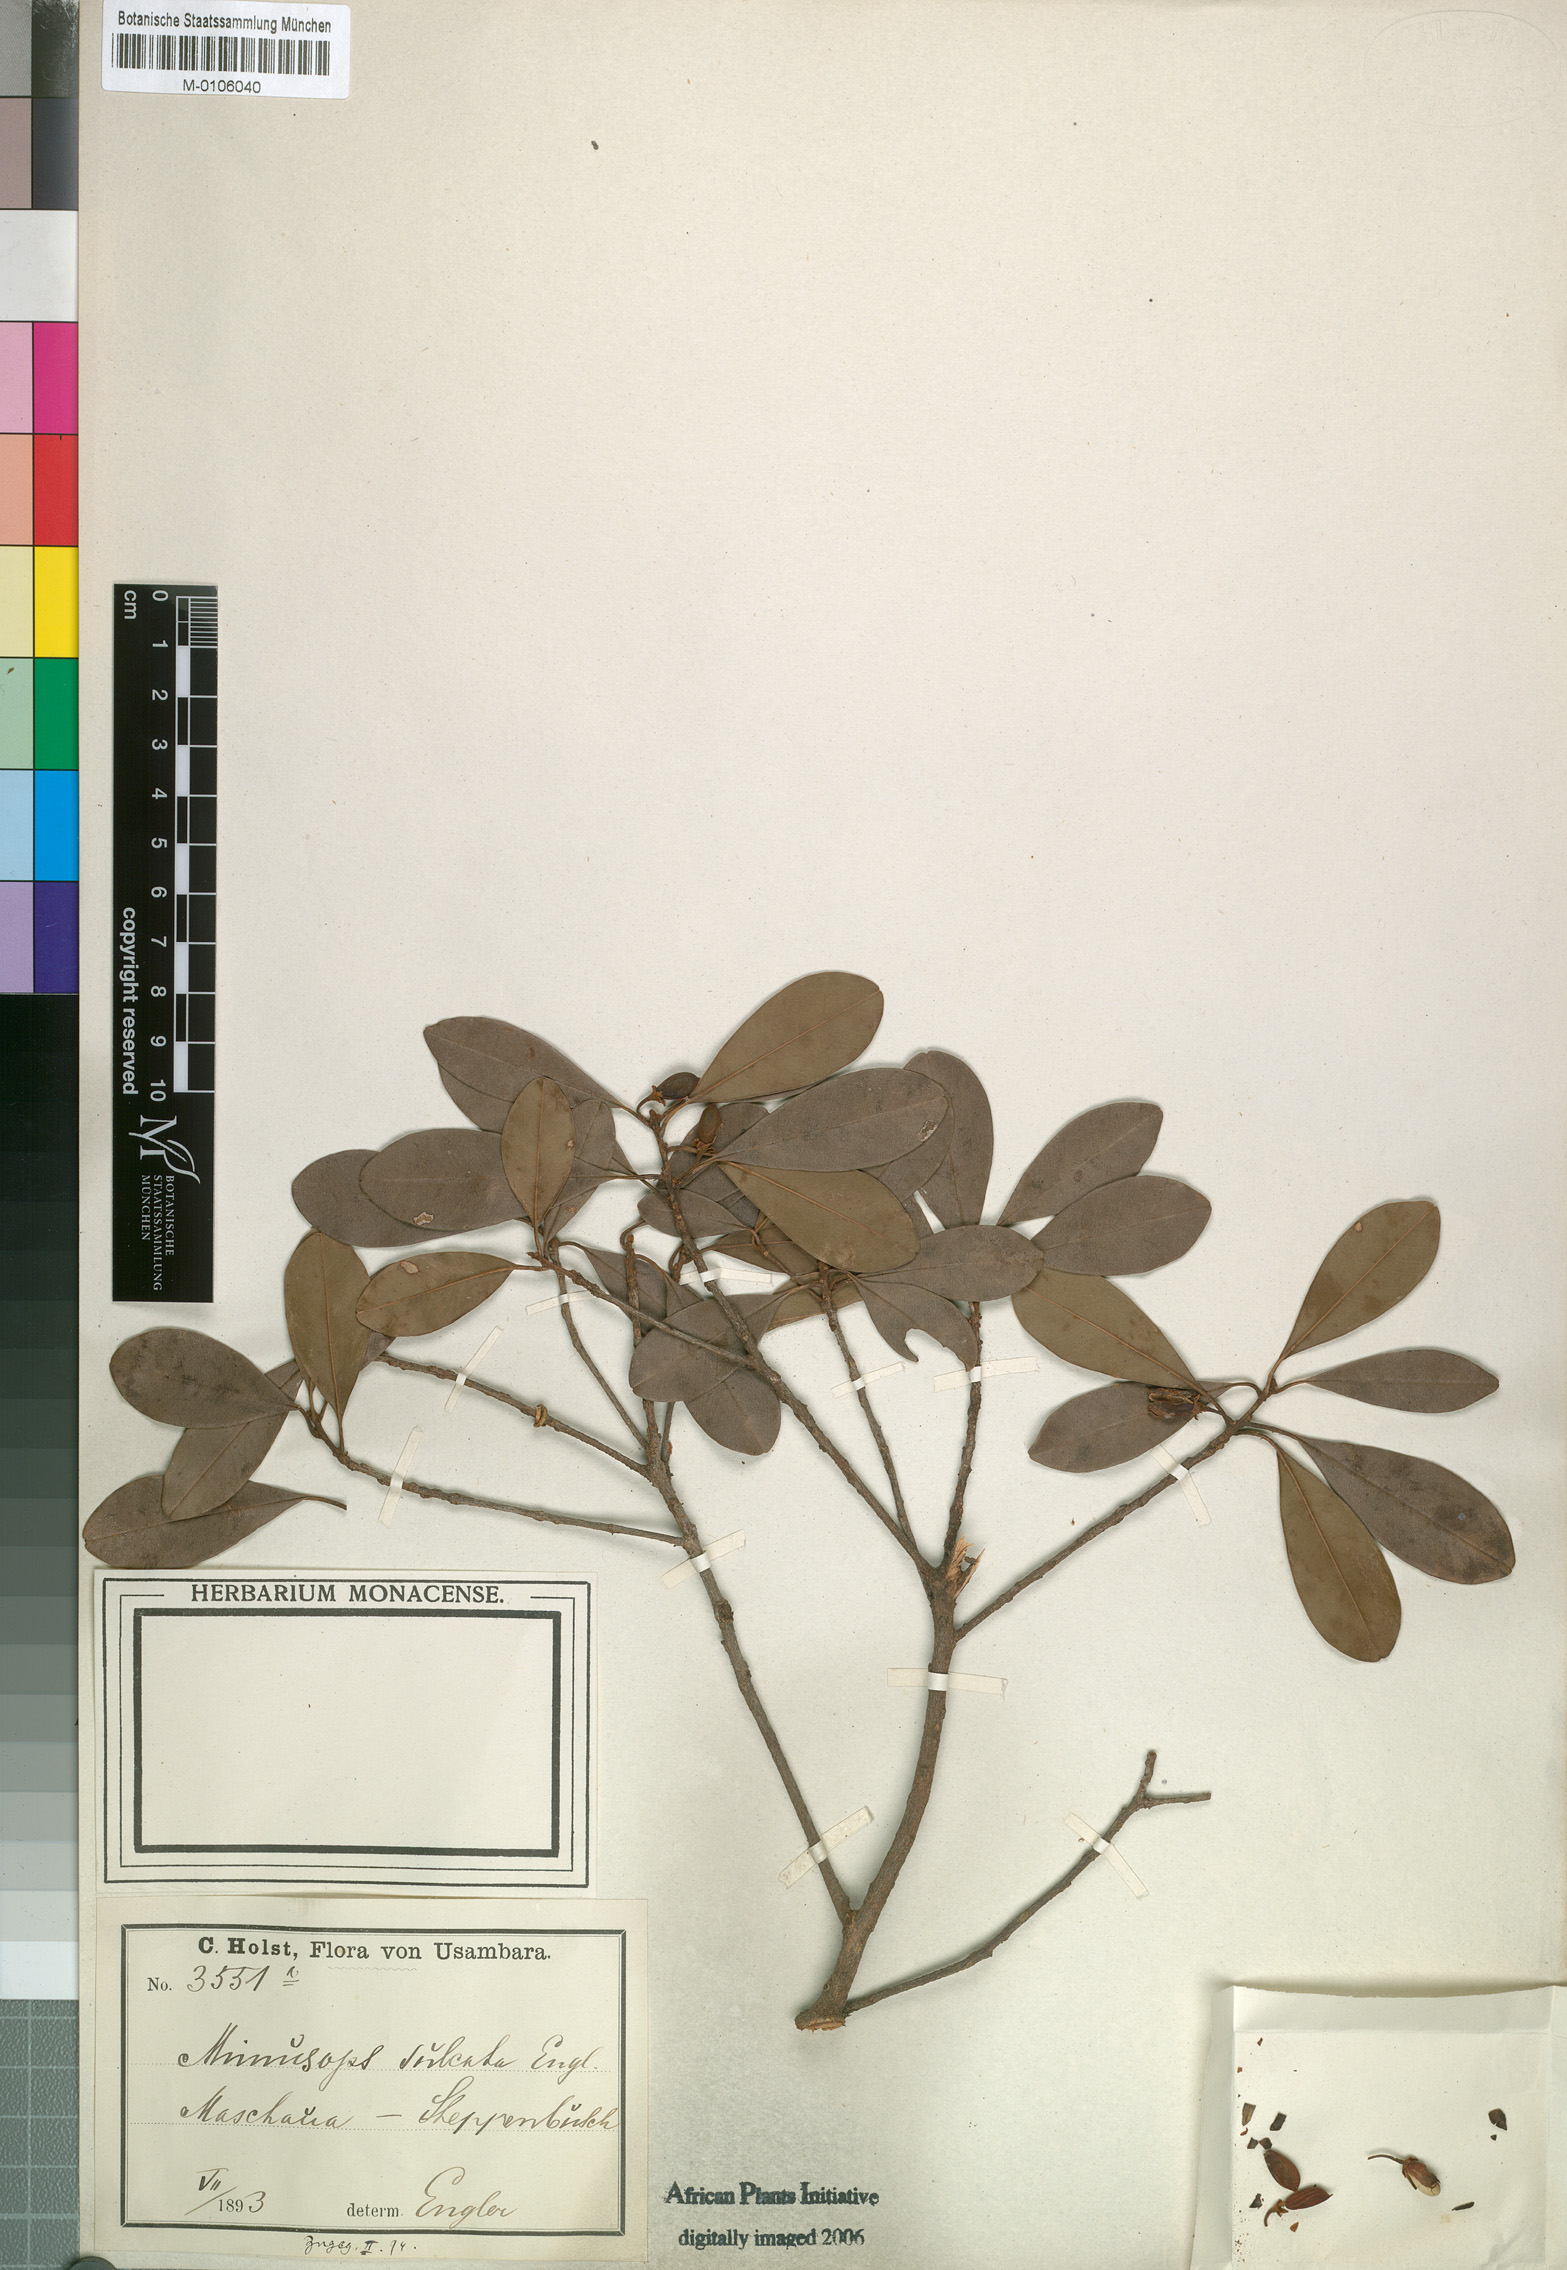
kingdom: Plantae
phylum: Tracheophyta
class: Magnoliopsida
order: Ericales
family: Sapotaceae
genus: Manilkara
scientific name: Manilkara sulcata
